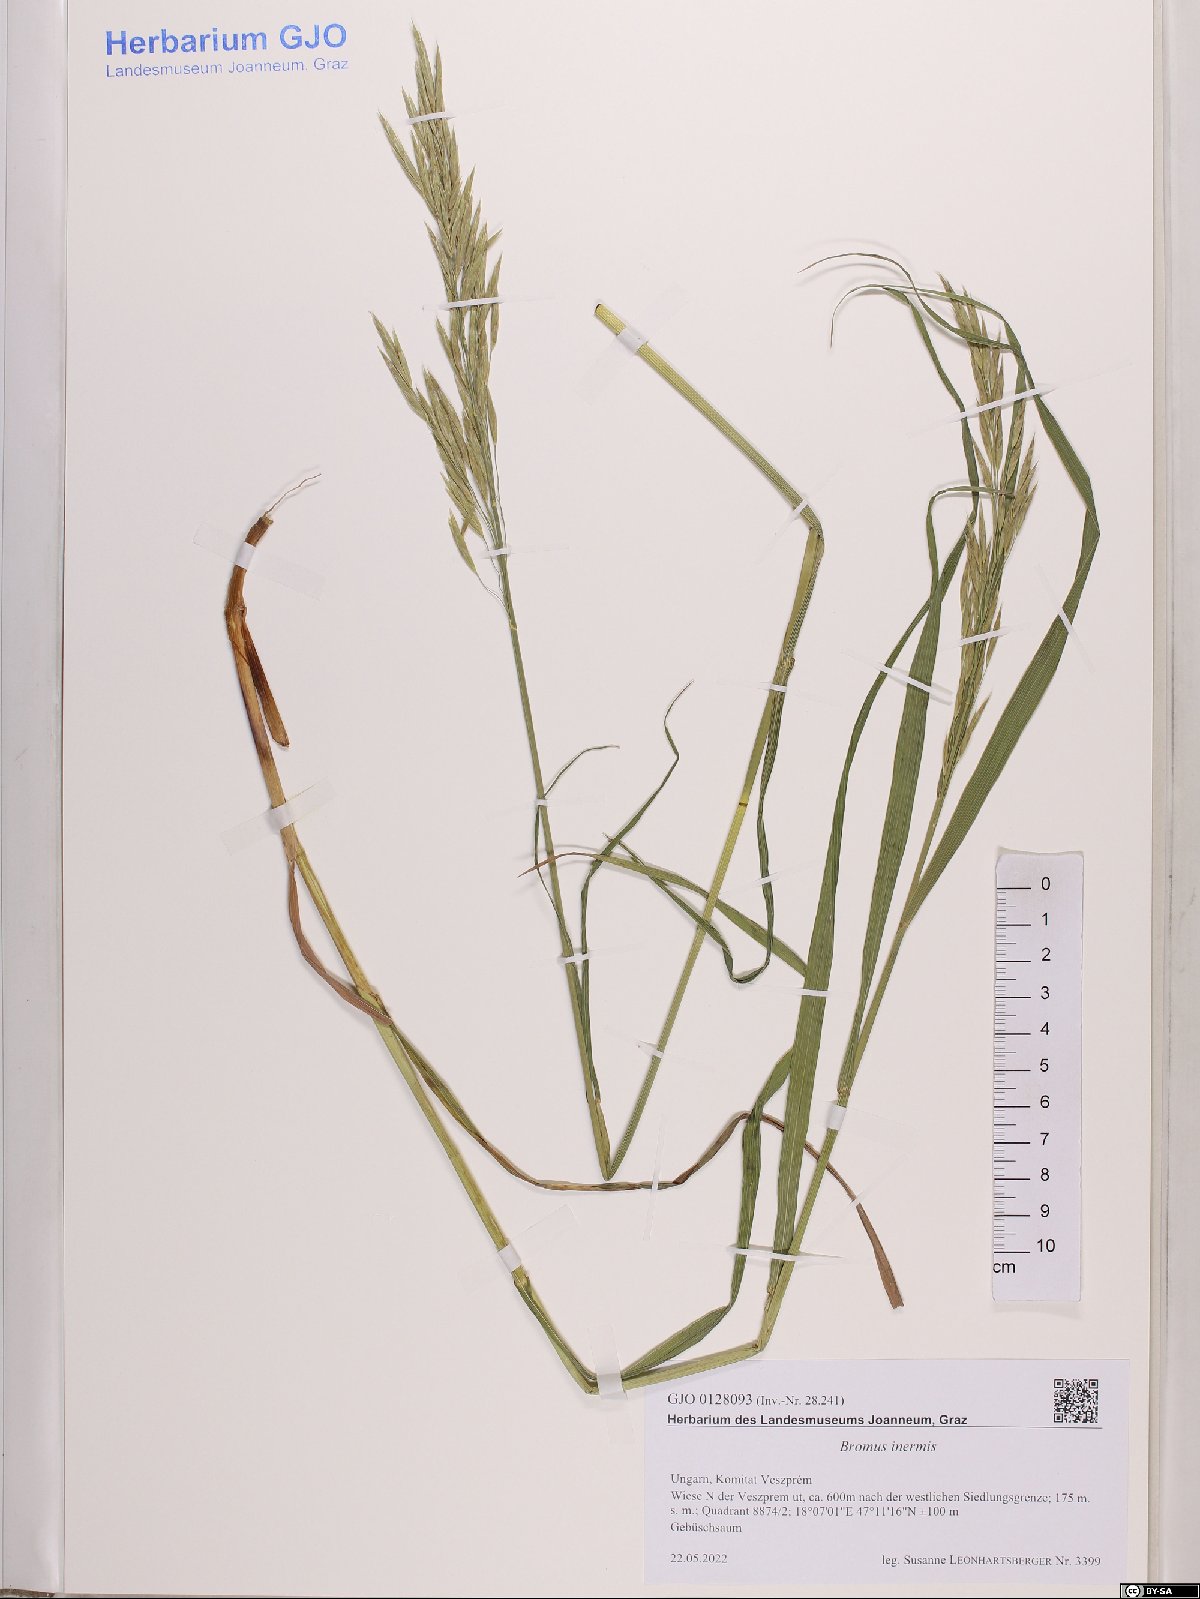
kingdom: Plantae
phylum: Tracheophyta
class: Liliopsida
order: Poales
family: Poaceae
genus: Bromus
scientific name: Bromus inermis
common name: Smooth brome
